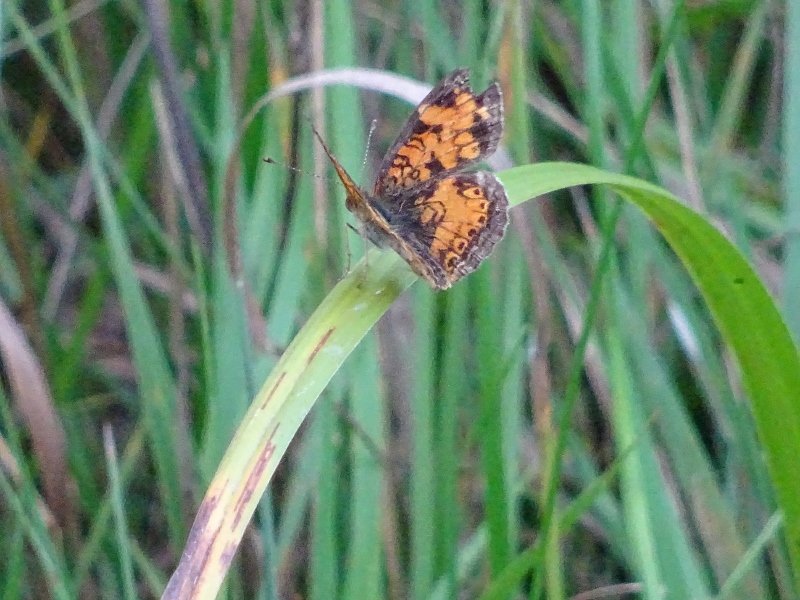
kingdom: Animalia
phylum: Arthropoda
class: Insecta
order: Lepidoptera
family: Nymphalidae
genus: Phyciodes
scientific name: Phyciodes tharos
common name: Pearl Crescent
